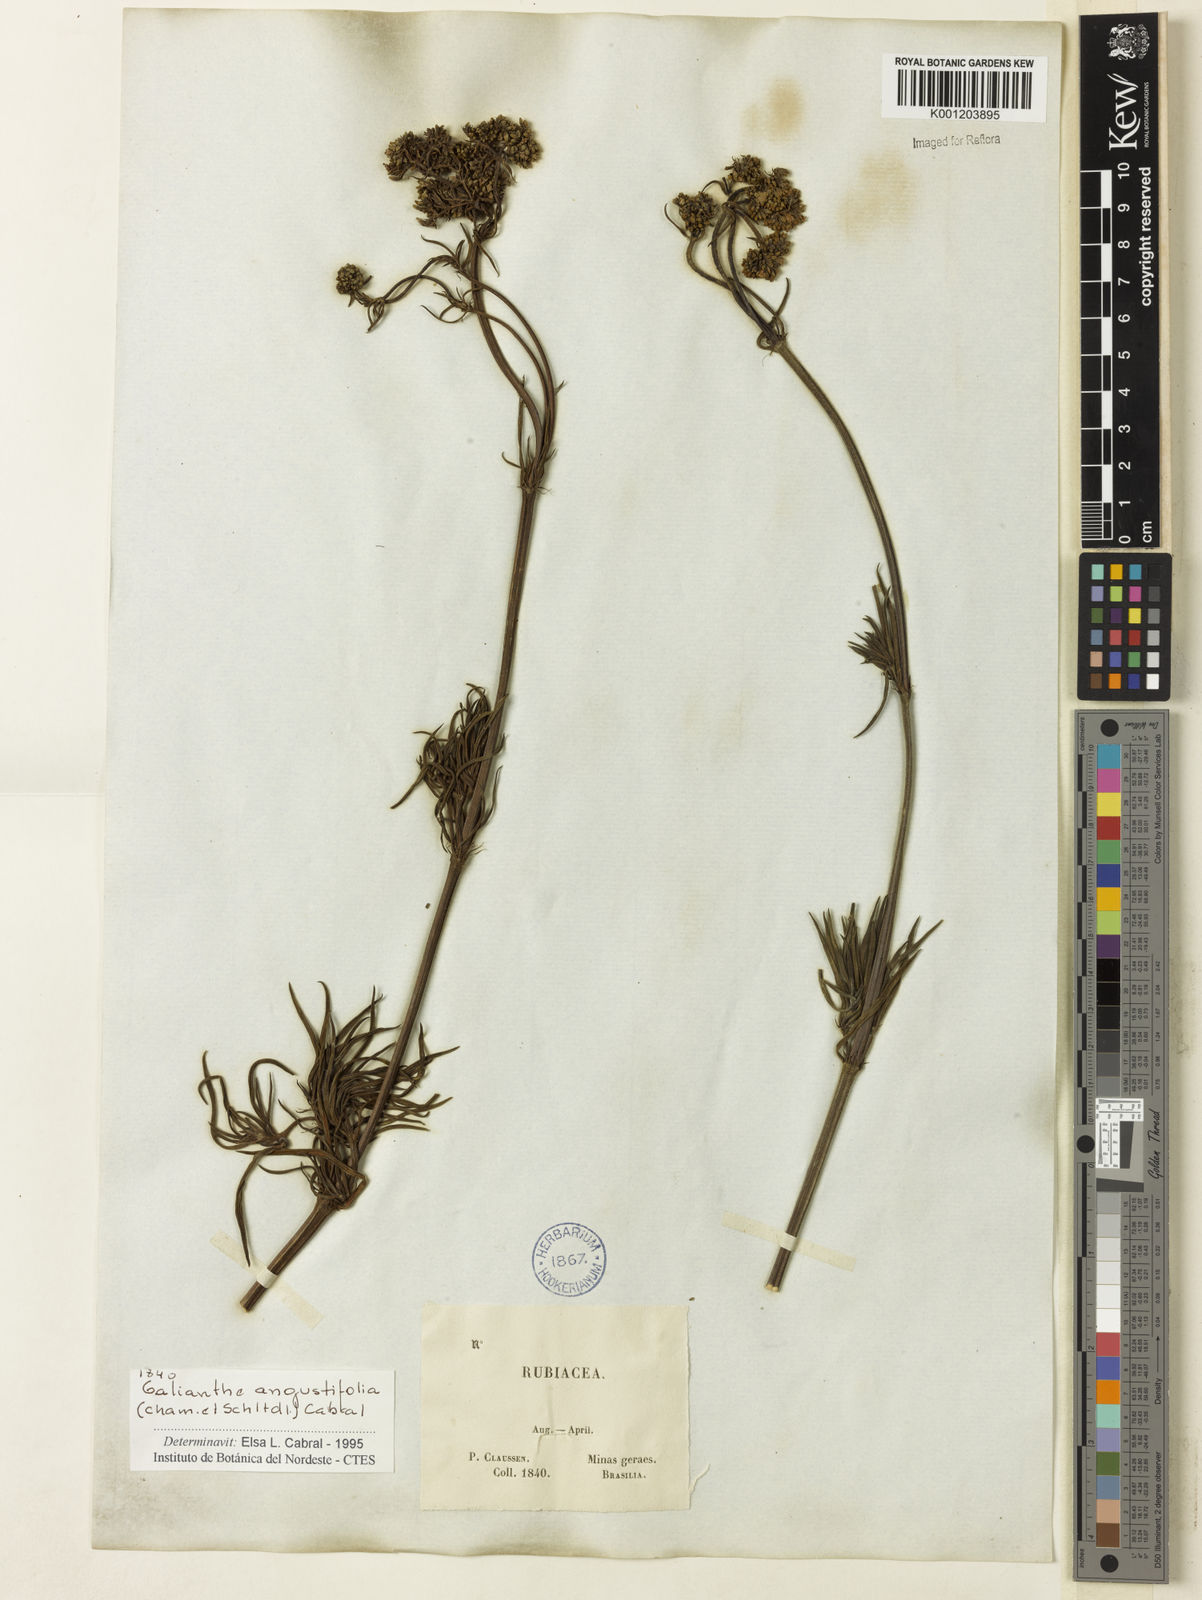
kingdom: Plantae
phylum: Tracheophyta
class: Magnoliopsida
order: Gentianales
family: Rubiaceae
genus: Galianthe
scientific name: Galianthe angustifolia
